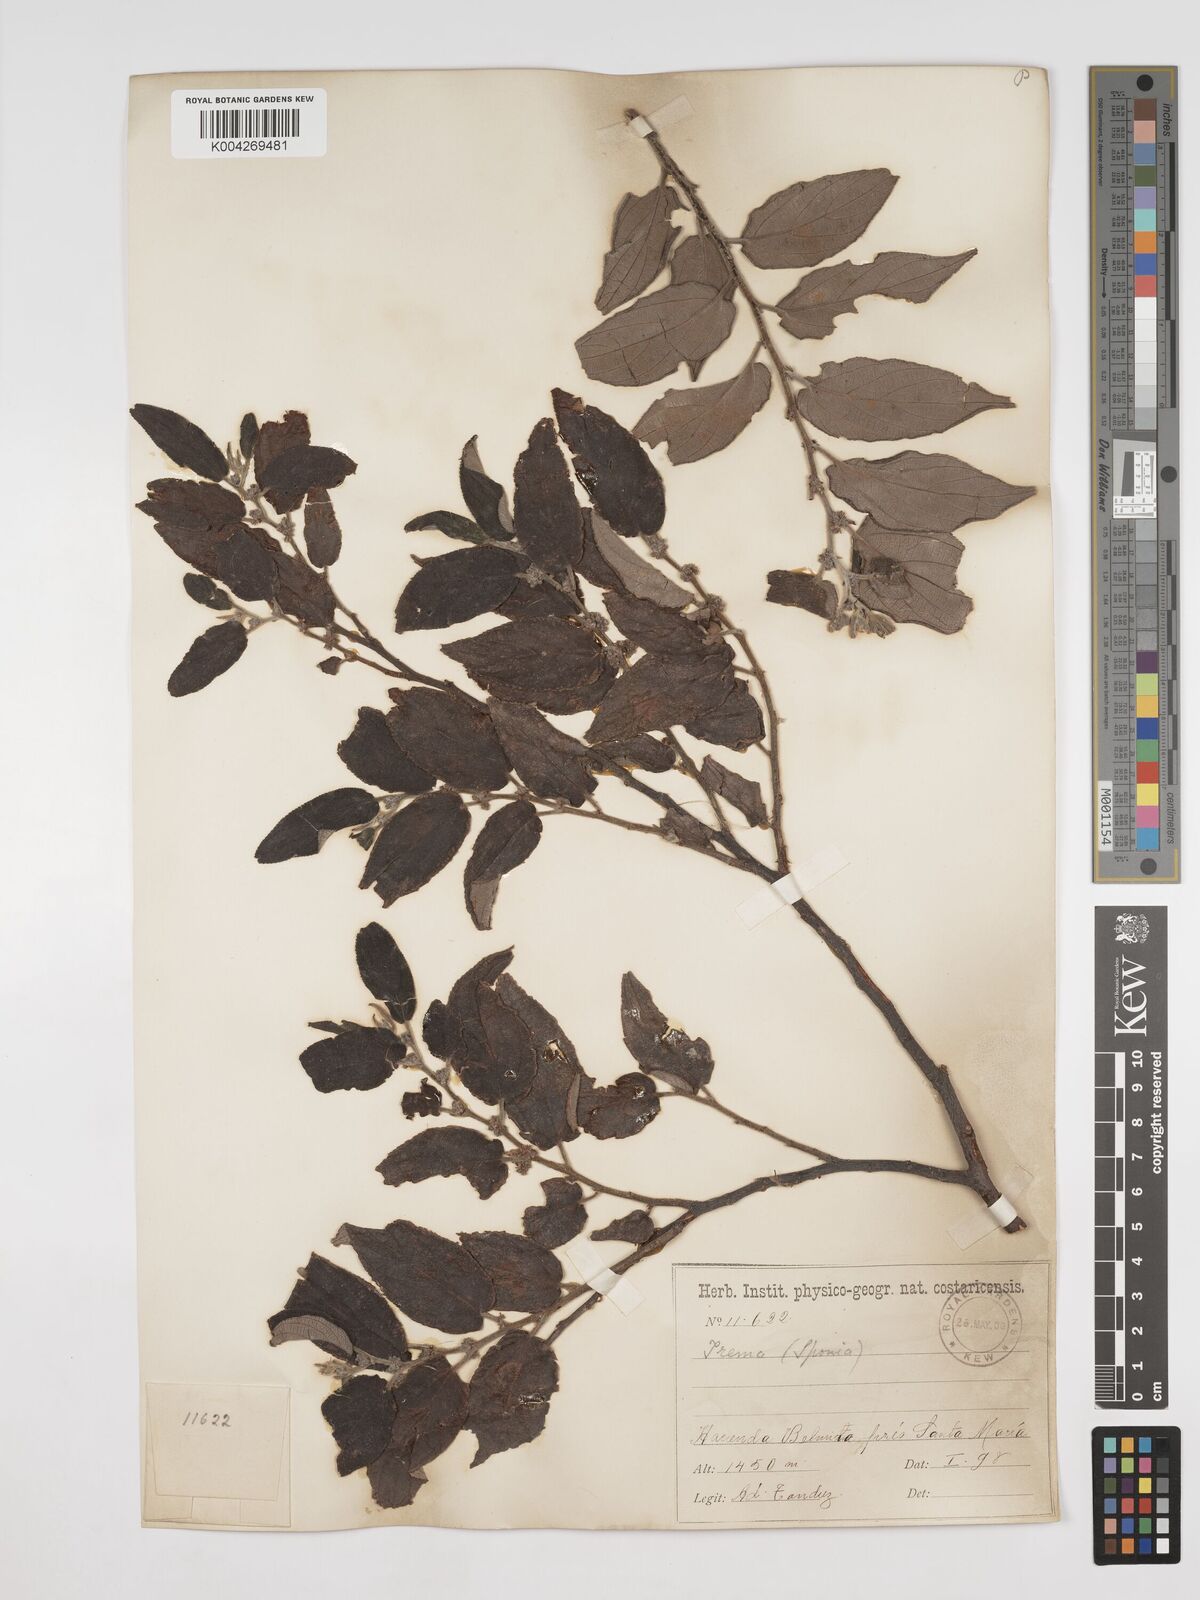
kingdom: Plantae
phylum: Tracheophyta
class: Magnoliopsida
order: Rosales
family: Cannabaceae
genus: Trema
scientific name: Trema micranthum
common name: Jamaican nettletree
